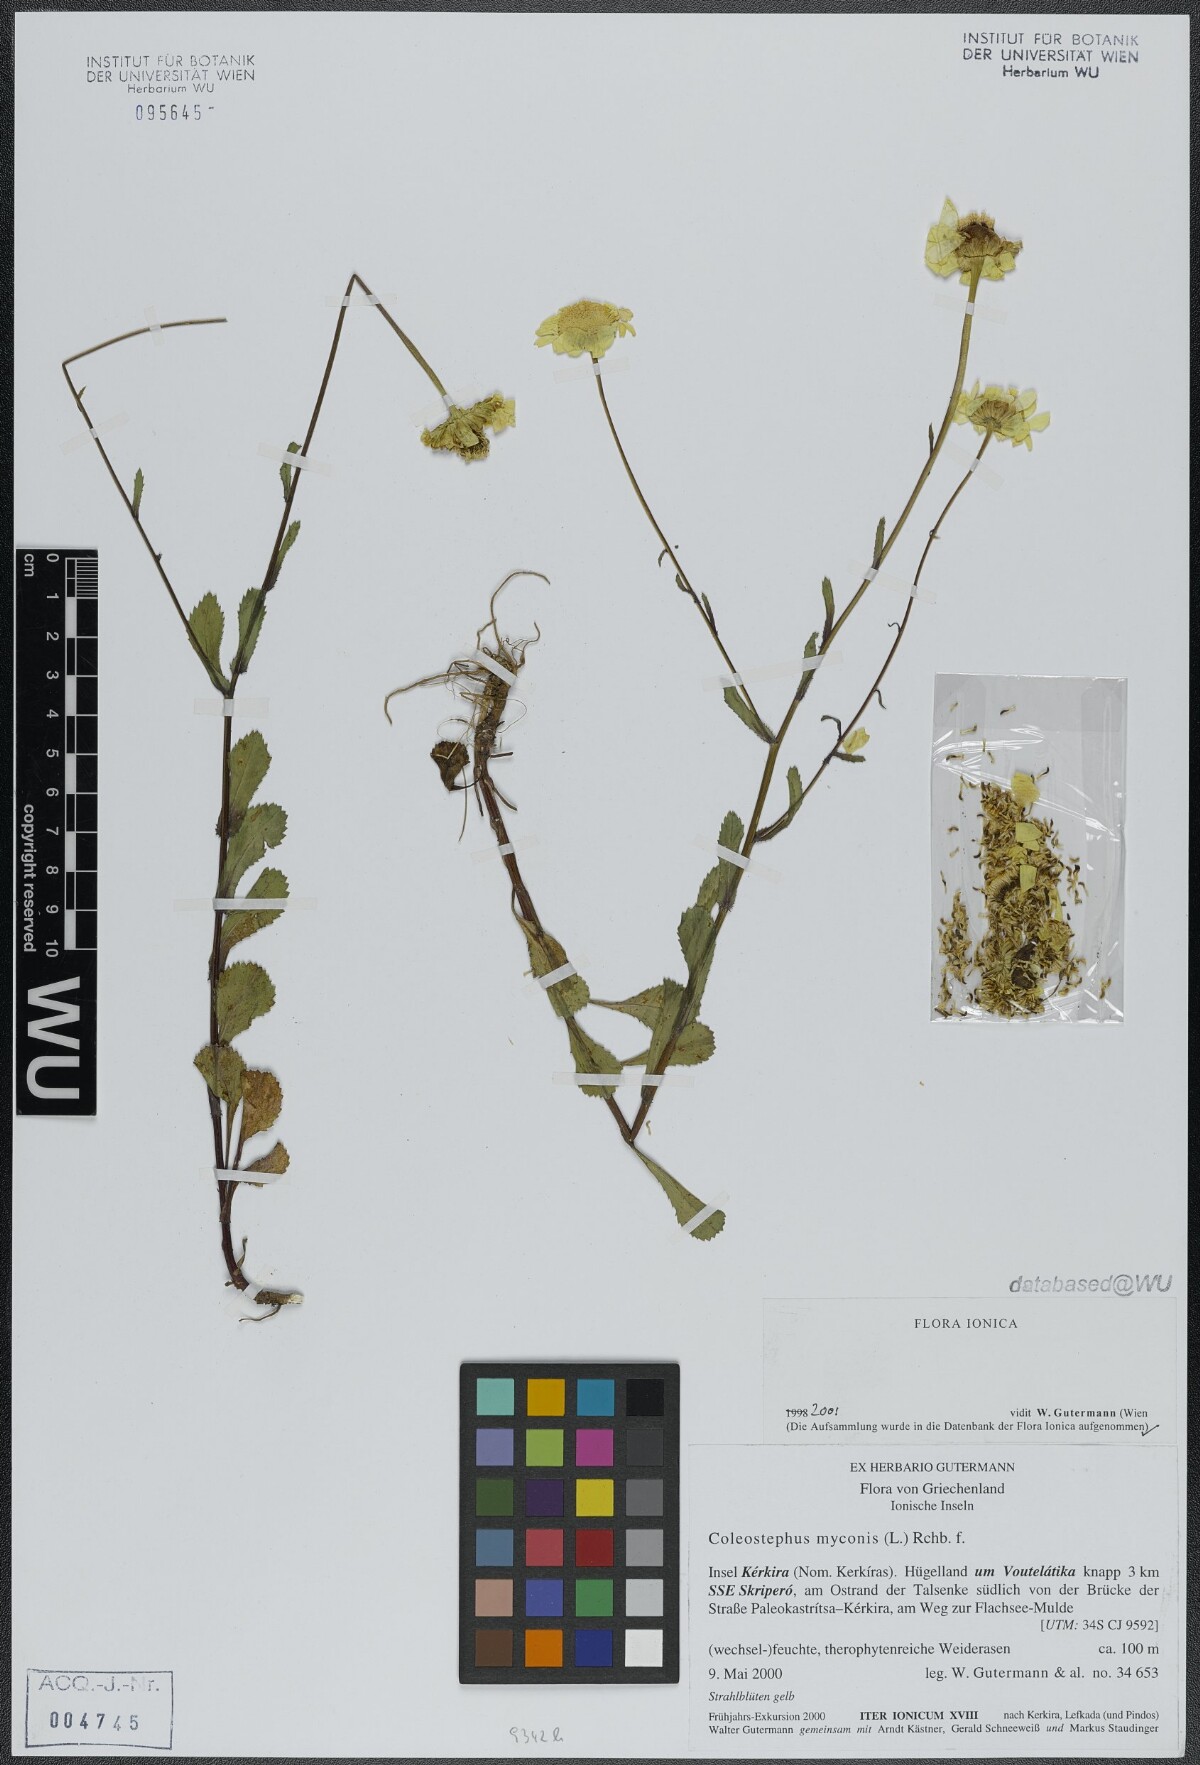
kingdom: Plantae
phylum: Tracheophyta
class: Magnoliopsida
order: Asterales
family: Asteraceae
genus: Coleostephus
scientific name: Coleostephus myconis
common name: Mediterranean marigold
